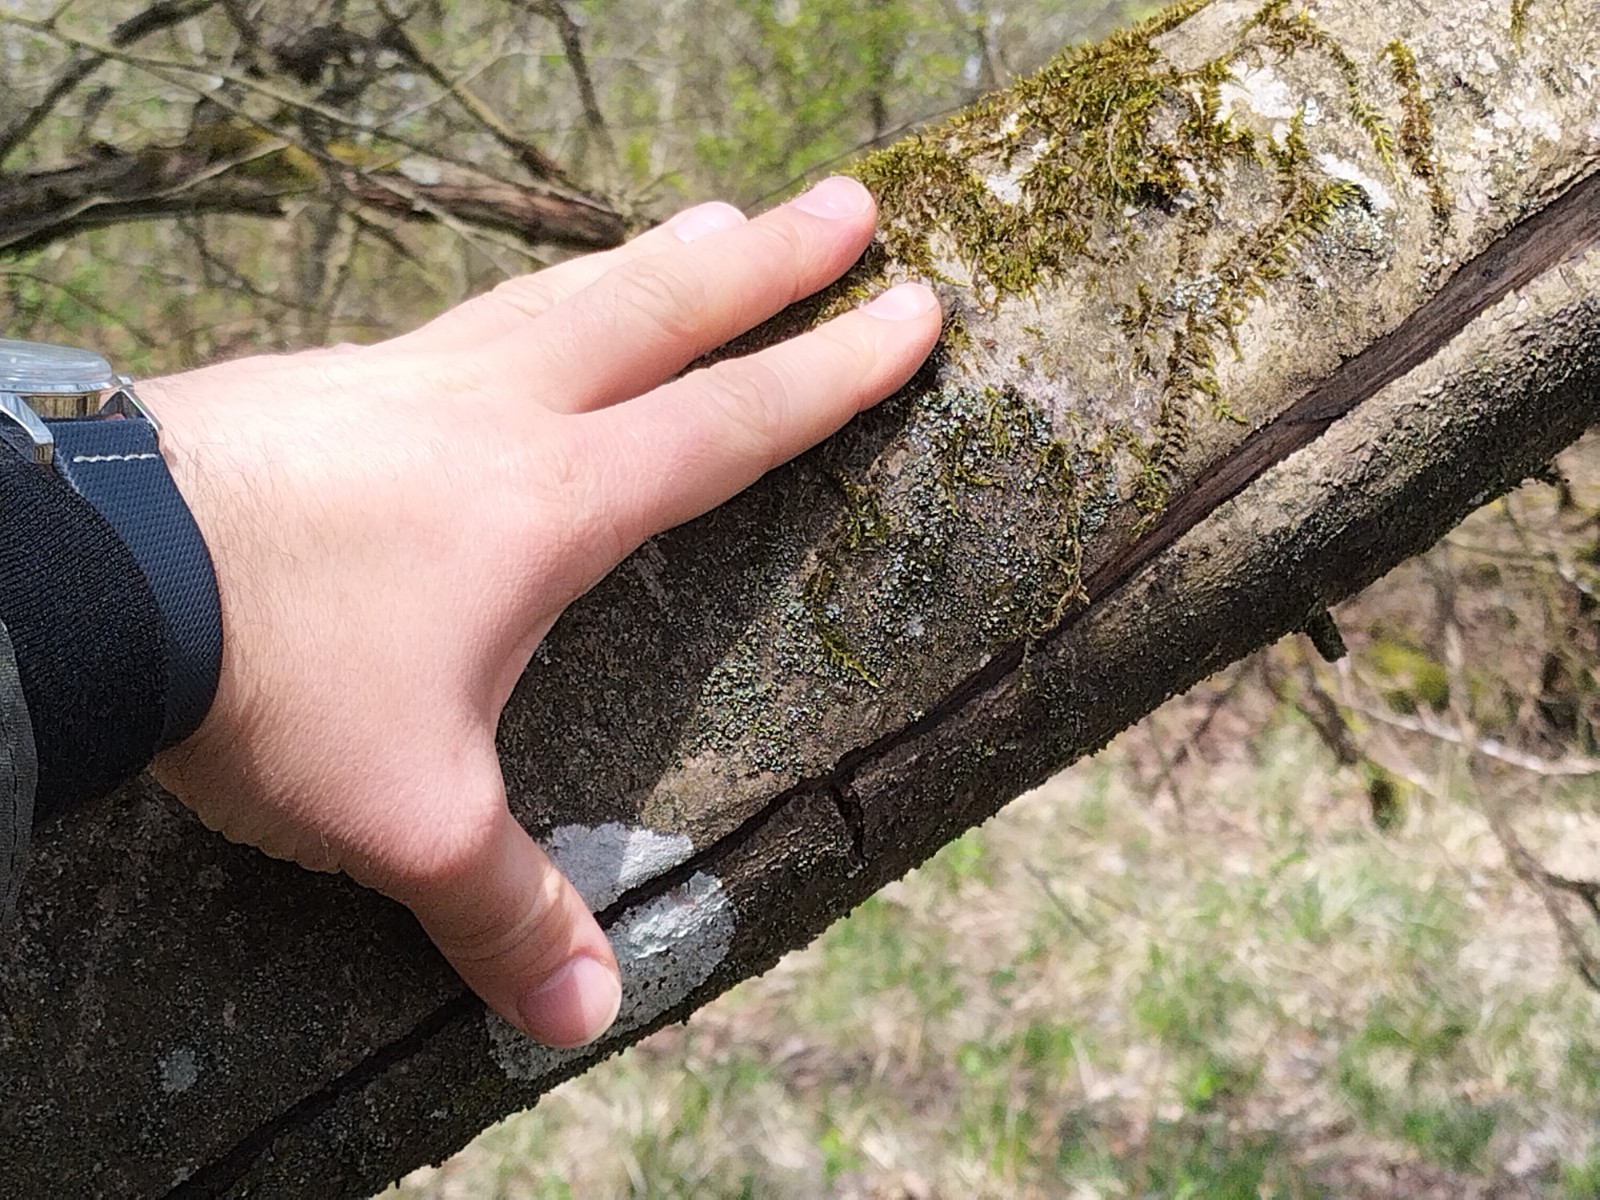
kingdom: Fungi
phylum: Ascomycota
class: Eurotiomycetes
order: Verrucariales
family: Verrucariaceae
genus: Normandina
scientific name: Normandina pulchella
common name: smuk konfettilav
